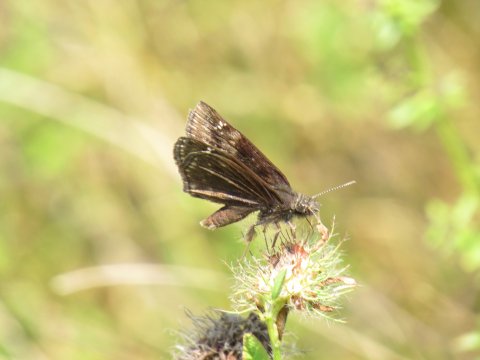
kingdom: Animalia
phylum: Arthropoda
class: Insecta
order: Lepidoptera
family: Hesperiidae
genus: Gesta
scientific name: Gesta
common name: Wild Indigo Duskywing
